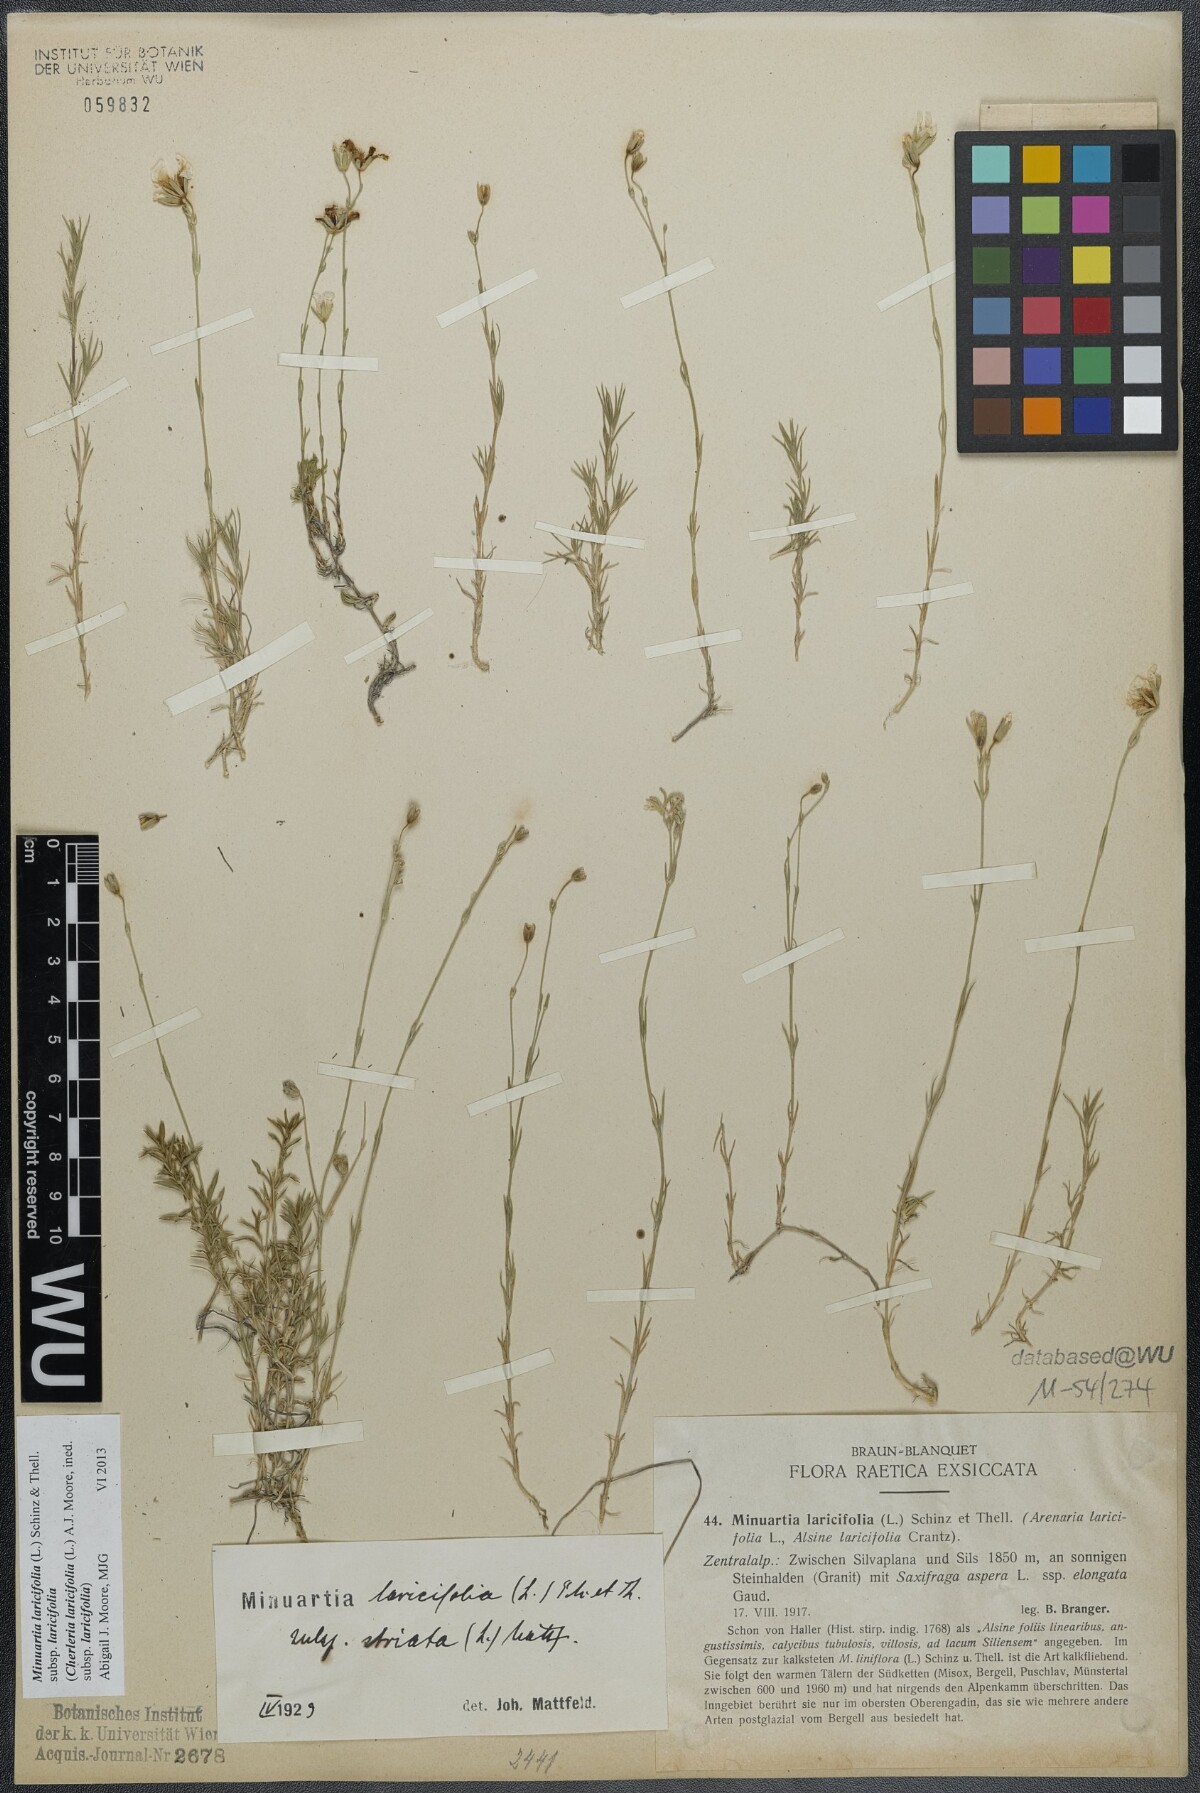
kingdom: Plantae
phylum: Tracheophyta
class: Magnoliopsida
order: Caryophyllales
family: Caryophyllaceae
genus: Cherleria
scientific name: Cherleria laricifolia
